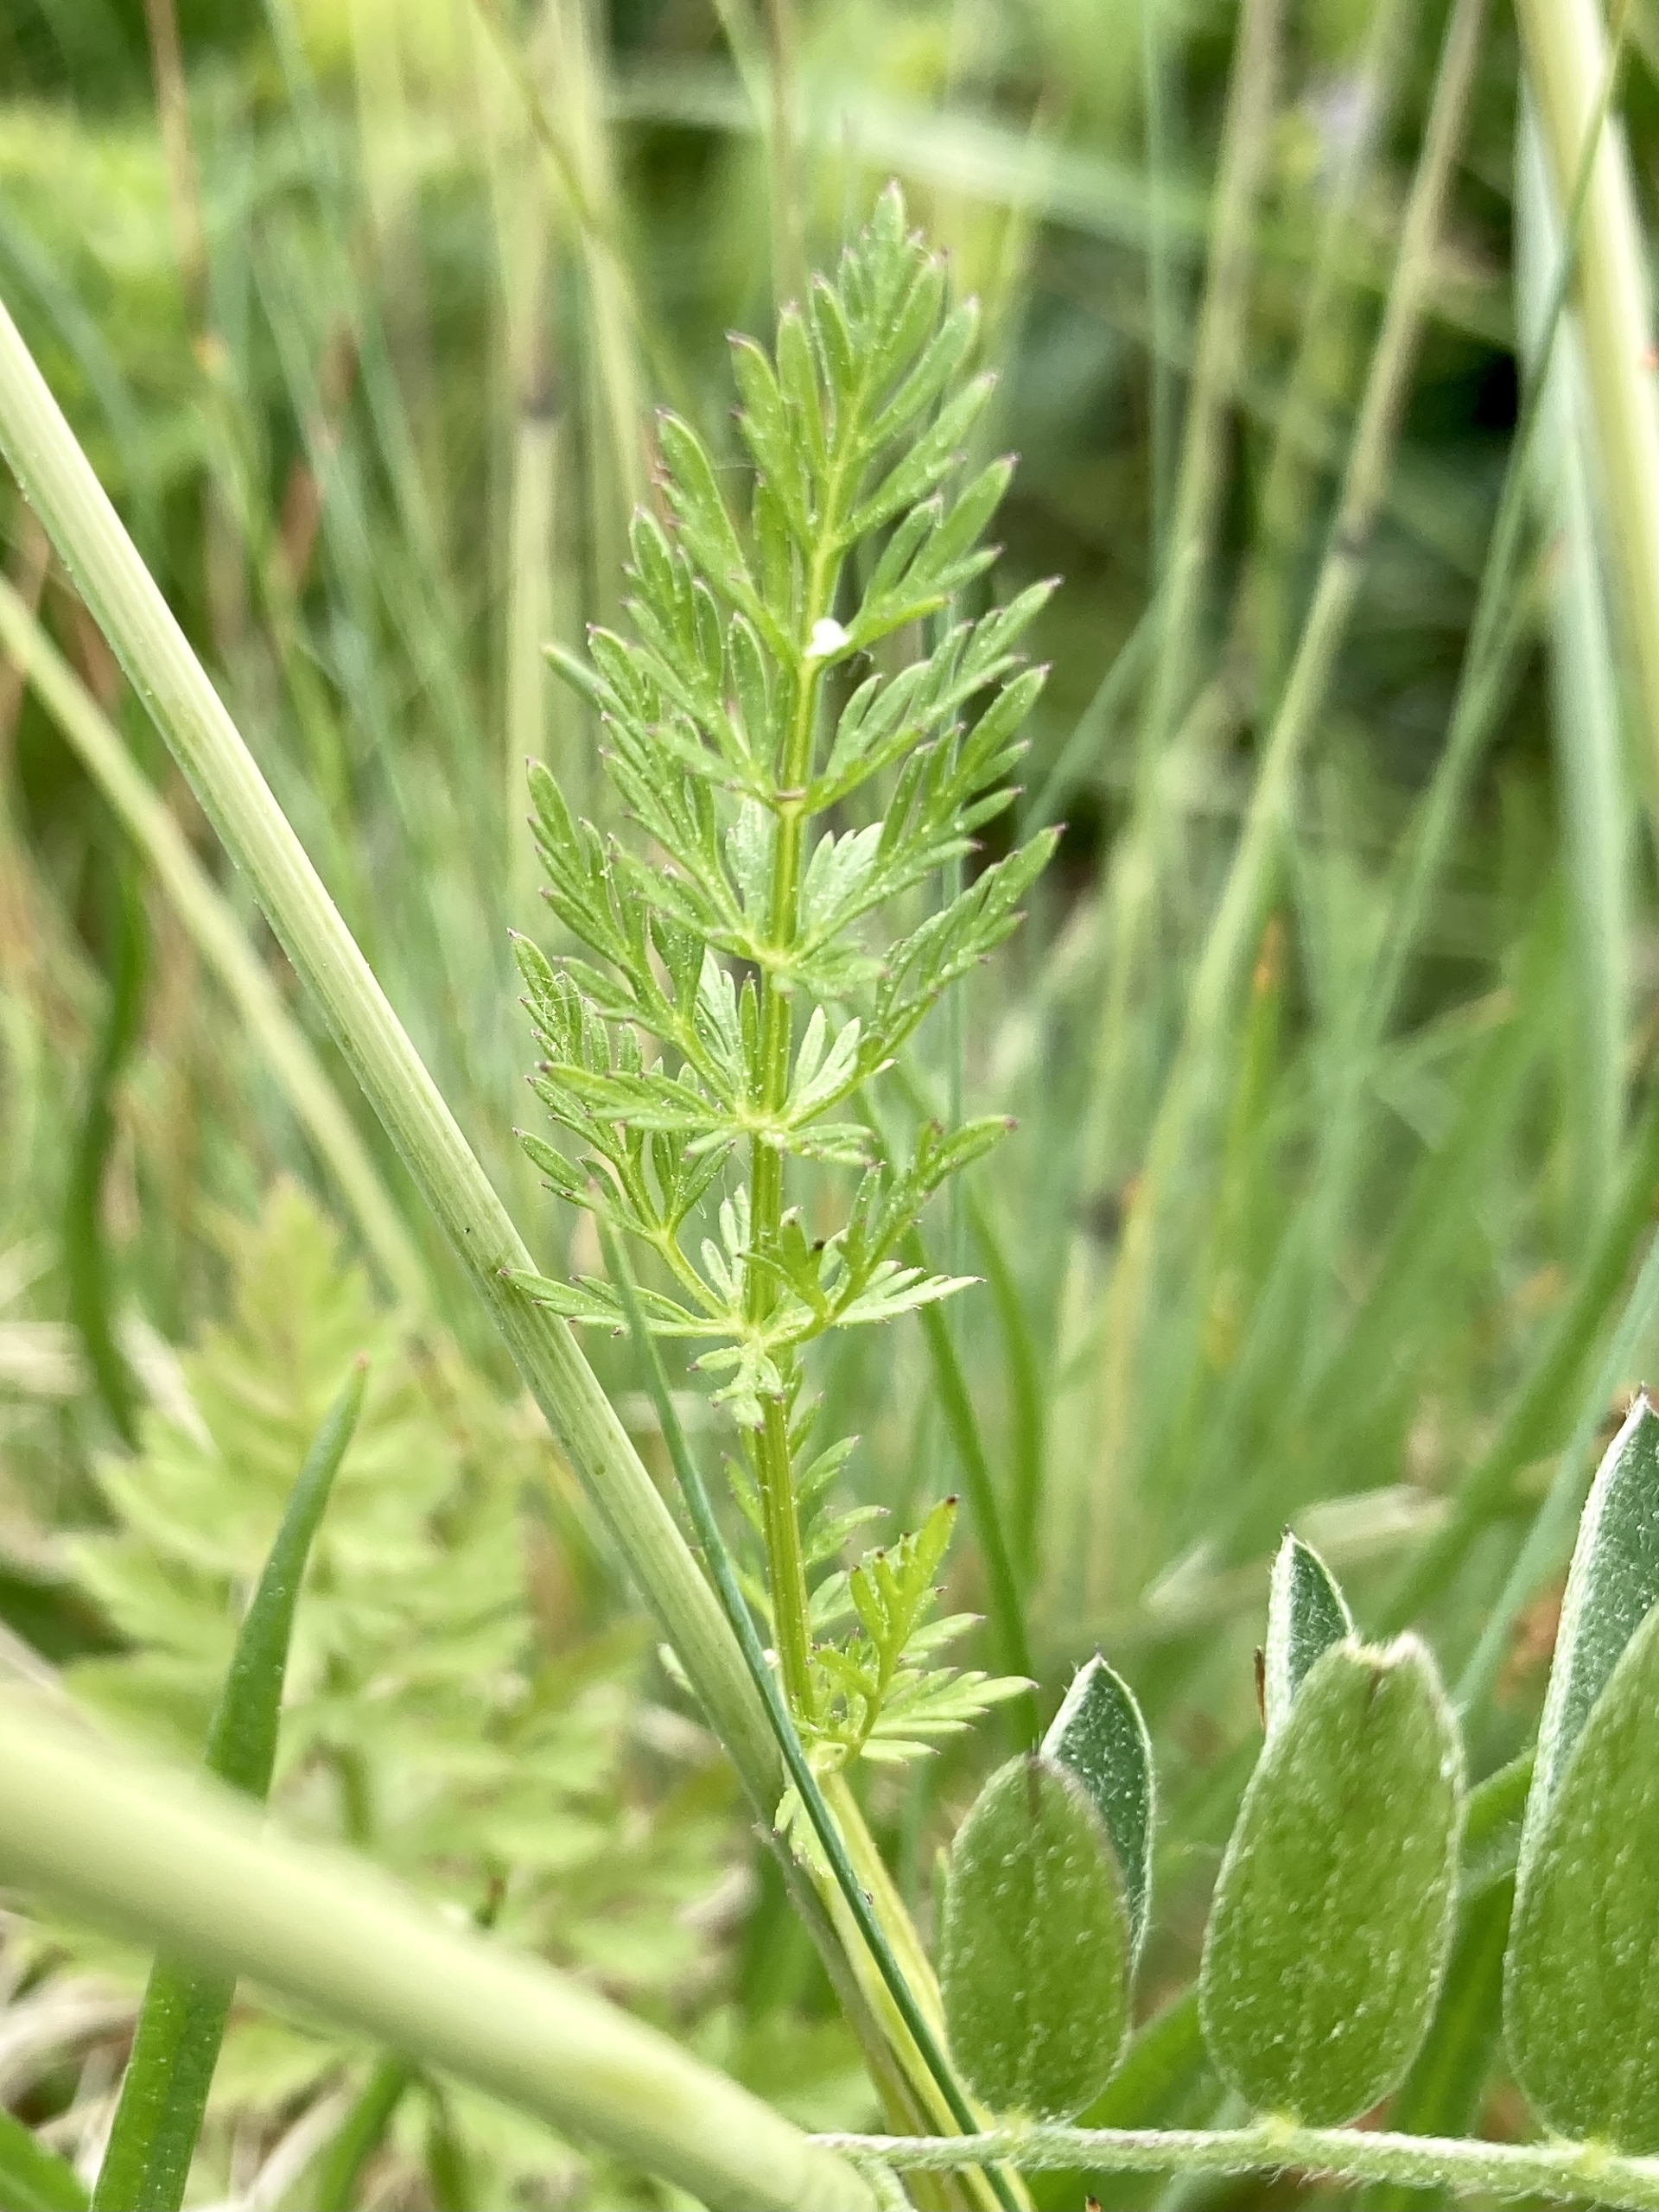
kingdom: Plantae
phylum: Tracheophyta
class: Magnoliopsida
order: Apiales
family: Apiaceae
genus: Carum
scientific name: Carum carvi
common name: Kommen
